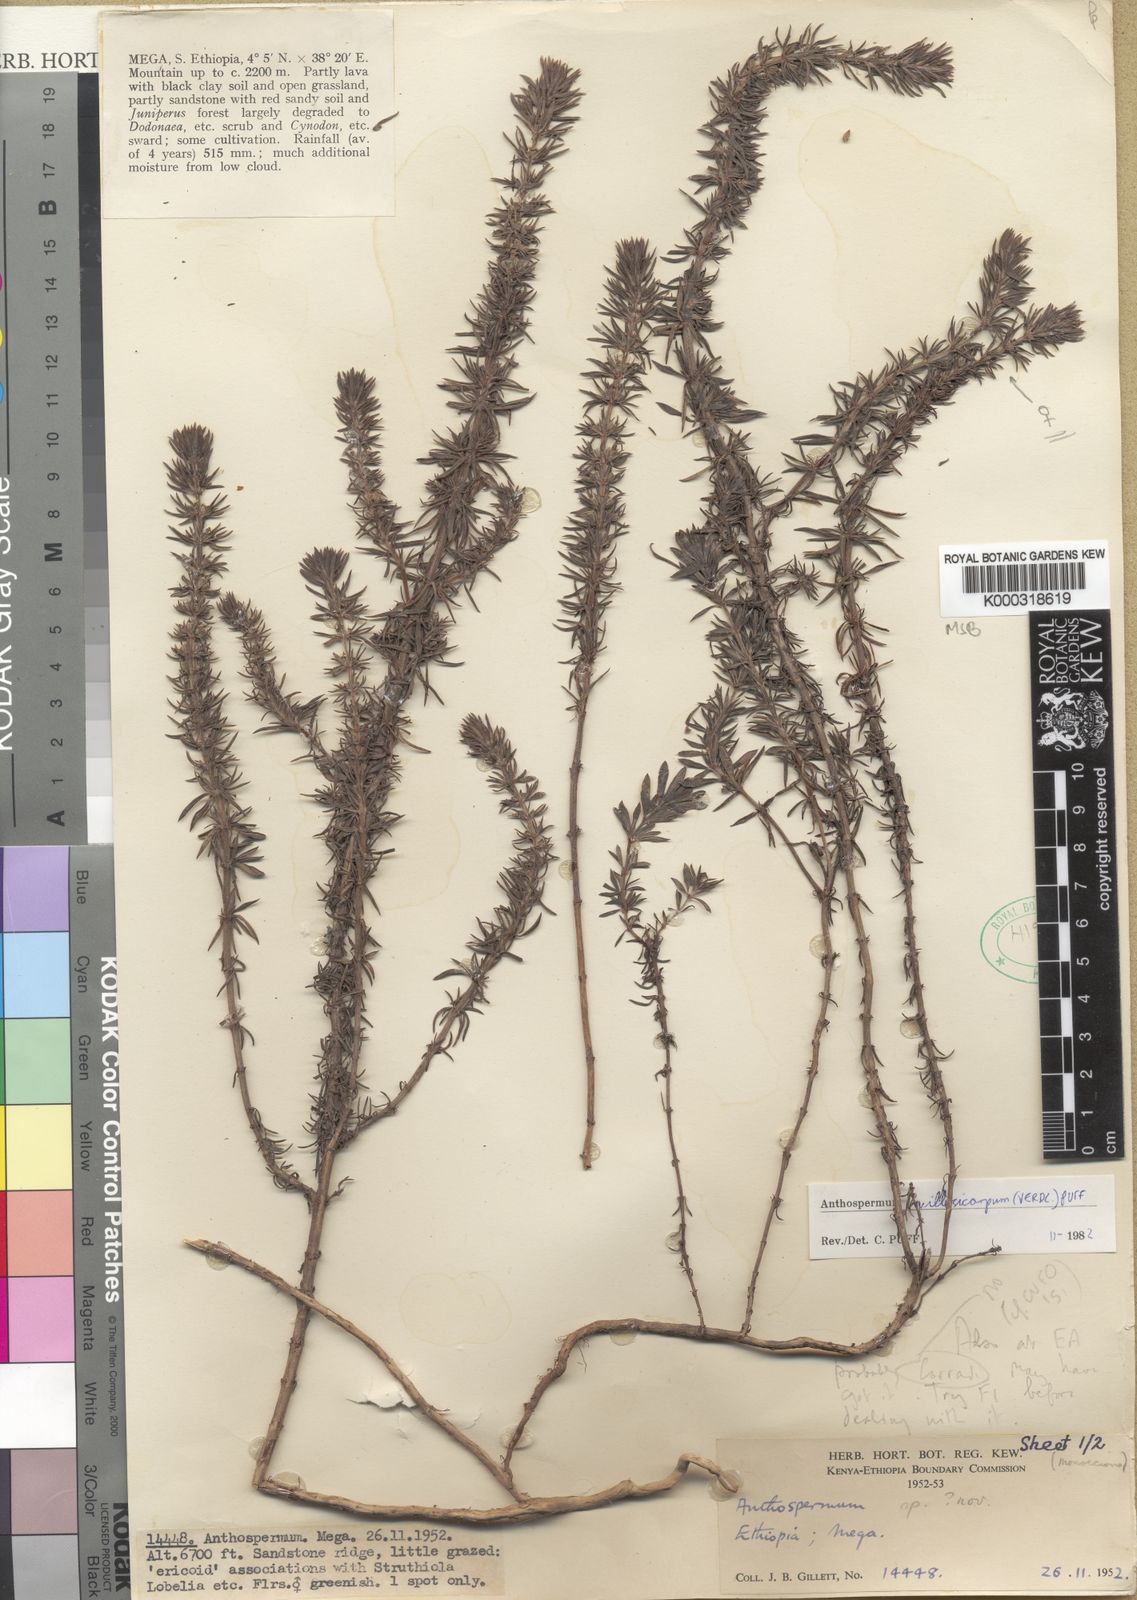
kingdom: Plantae
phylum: Tracheophyta
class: Magnoliopsida
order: Gentianales
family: Rubiaceae
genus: Canthium
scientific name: Canthium
